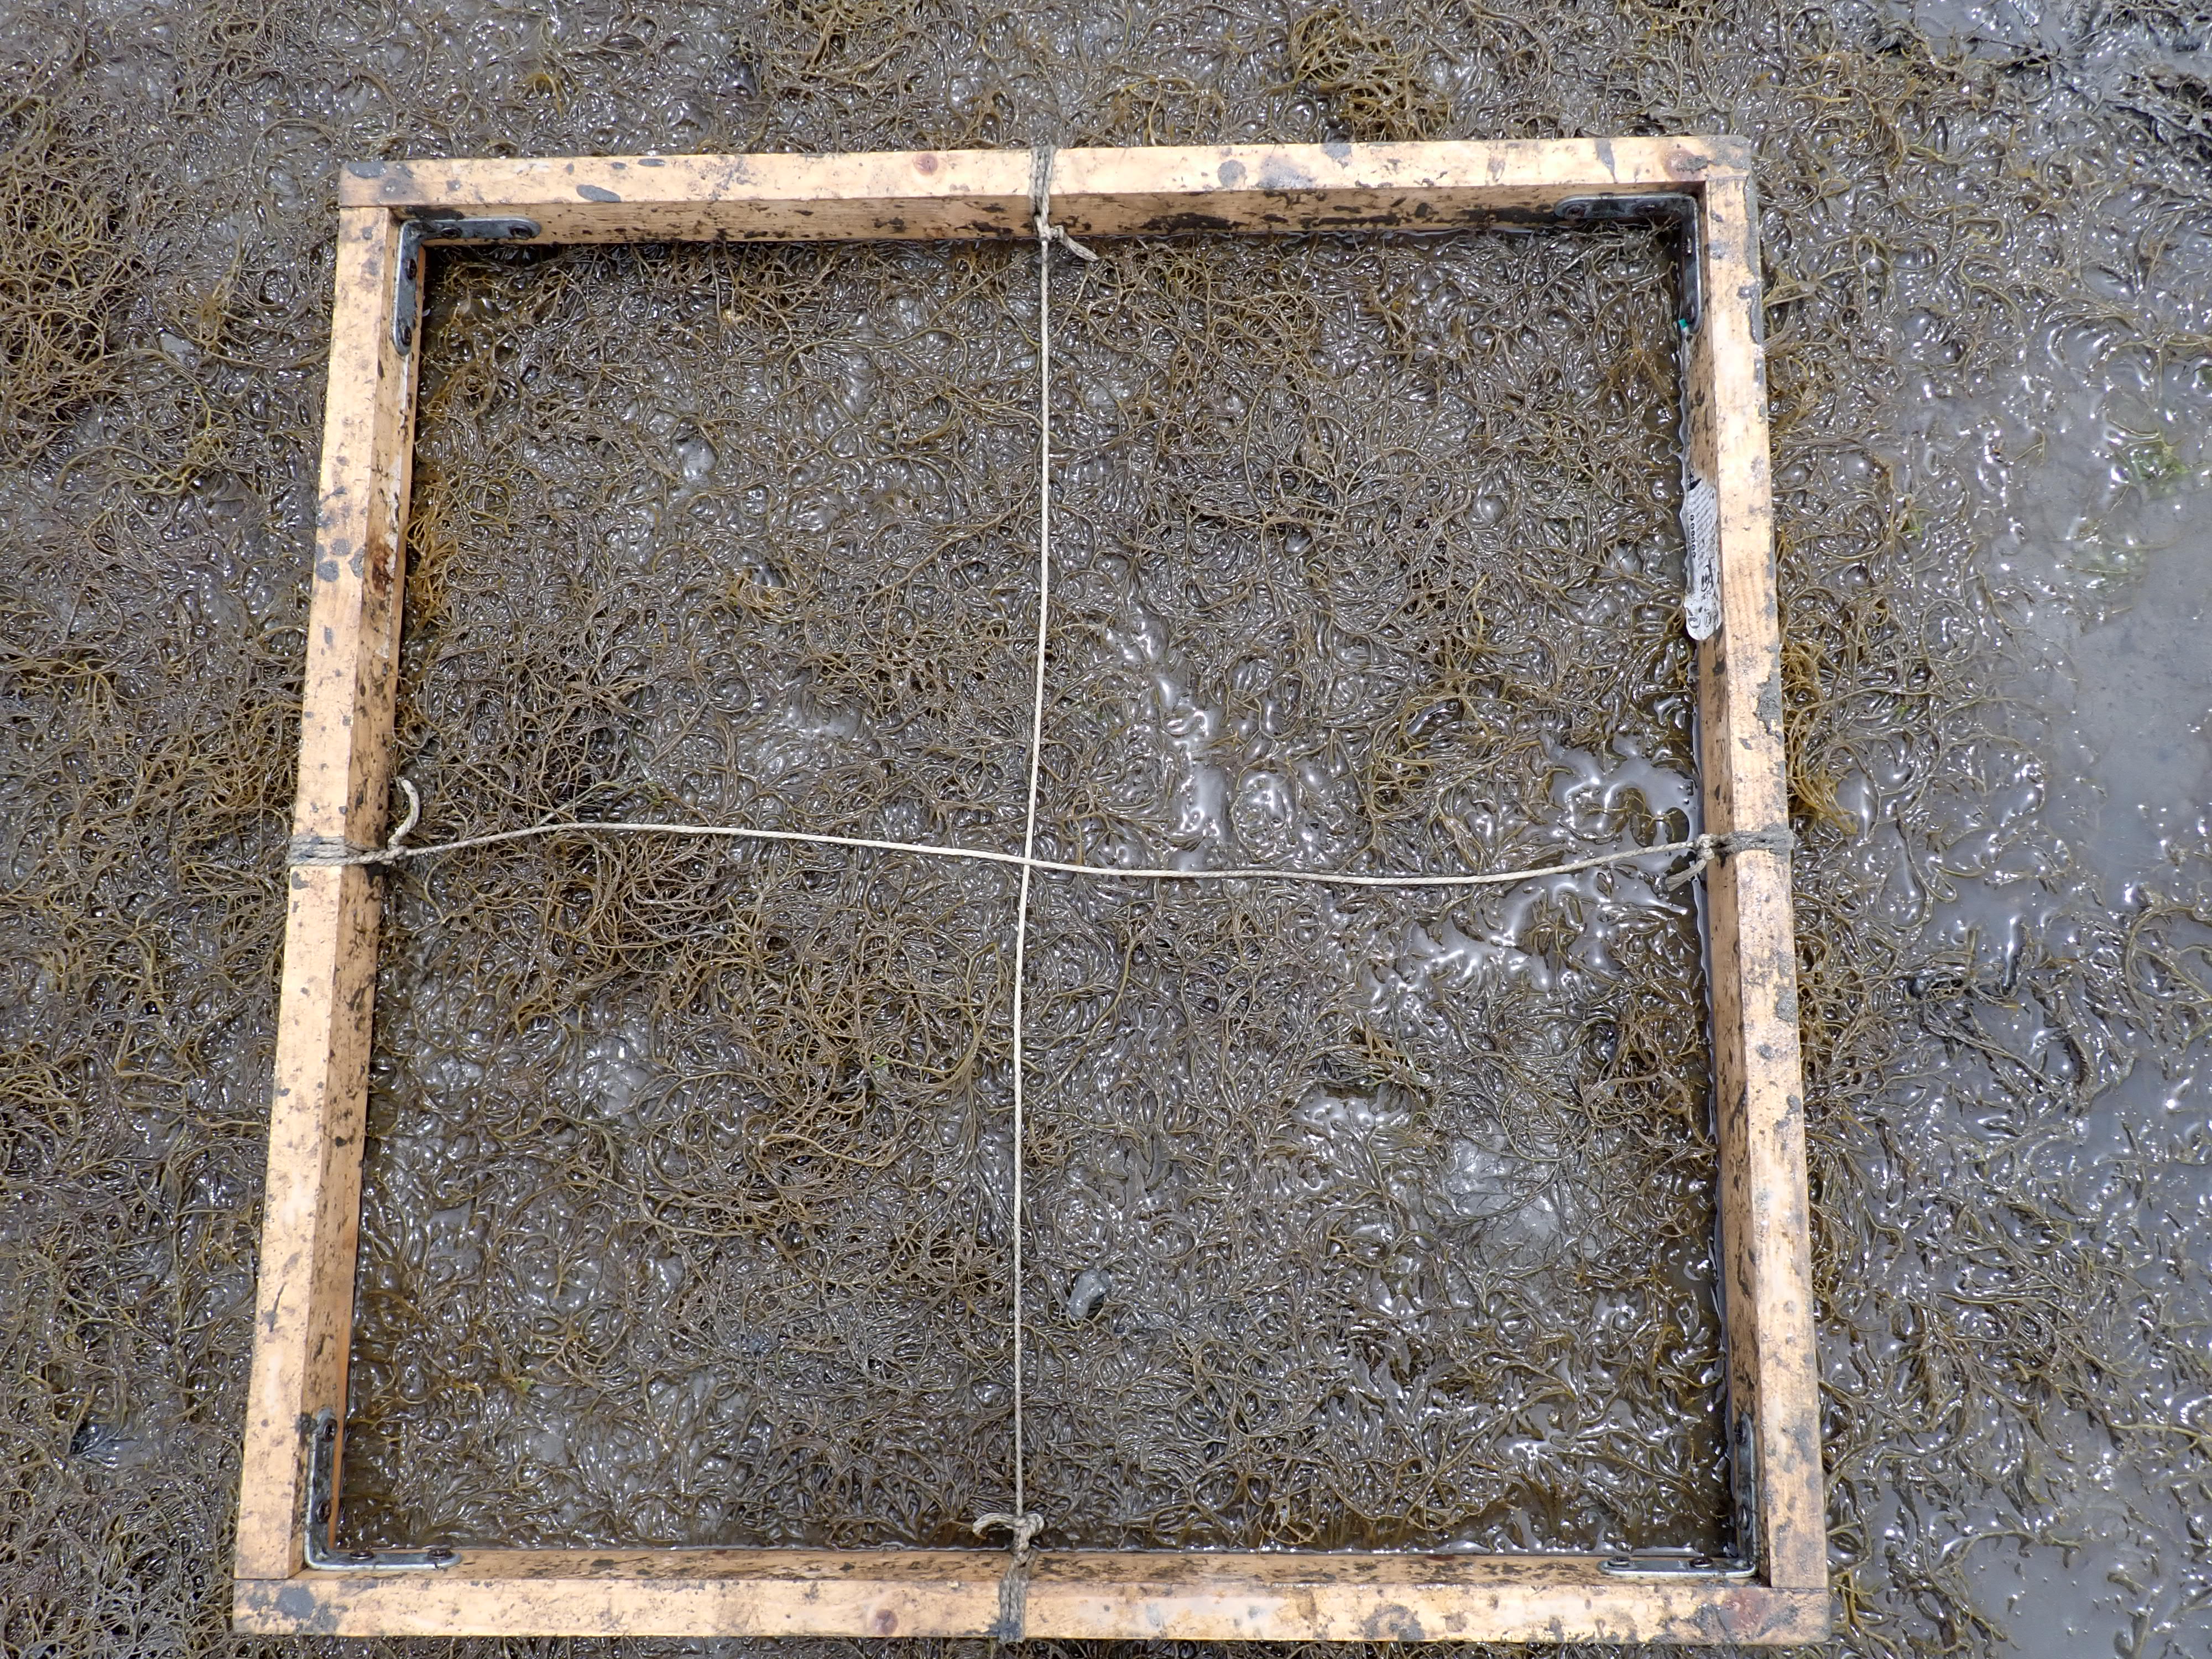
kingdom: Plantae
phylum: Rhodophyta
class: Florideophyceae
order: Gracilariales
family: Gracilariaceae
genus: Gracilaria
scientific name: Gracilaria vermiculophylla
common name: Algae
